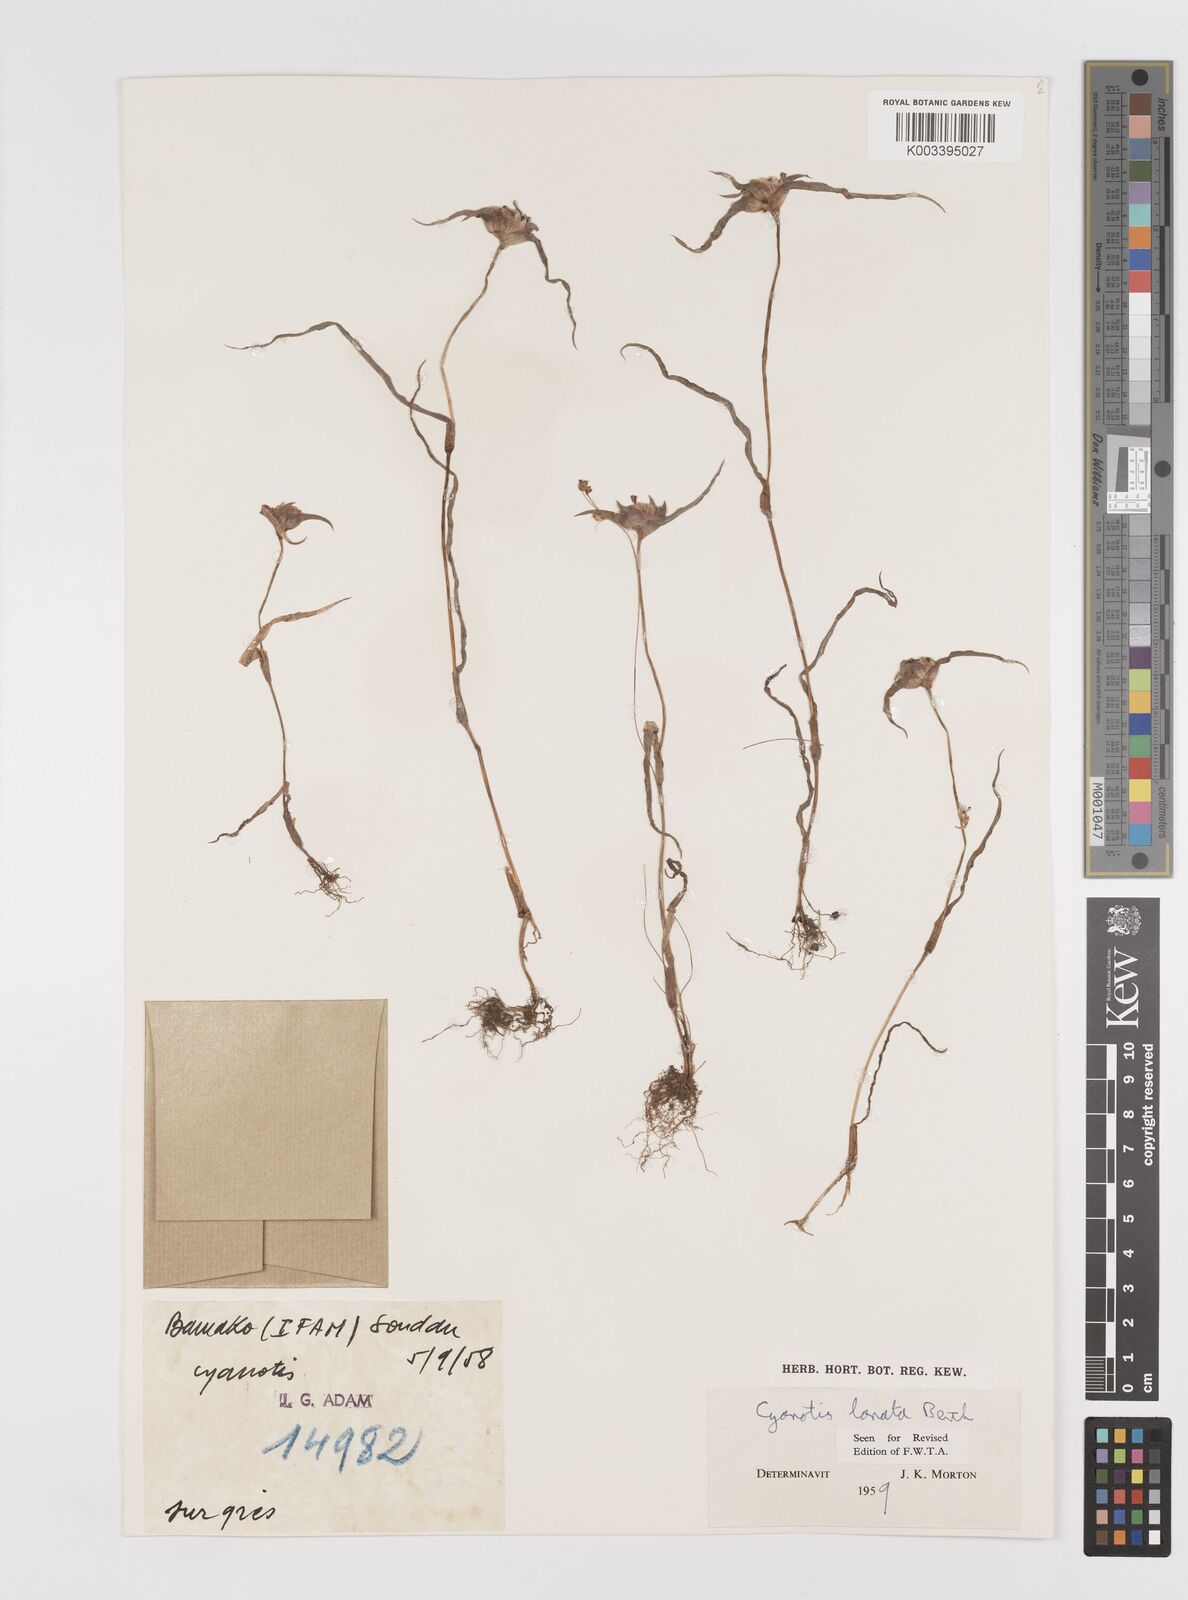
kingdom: Plantae
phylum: Tracheophyta
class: Liliopsida
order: Commelinales
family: Commelinaceae
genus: Cyanotis
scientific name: Cyanotis lanata
